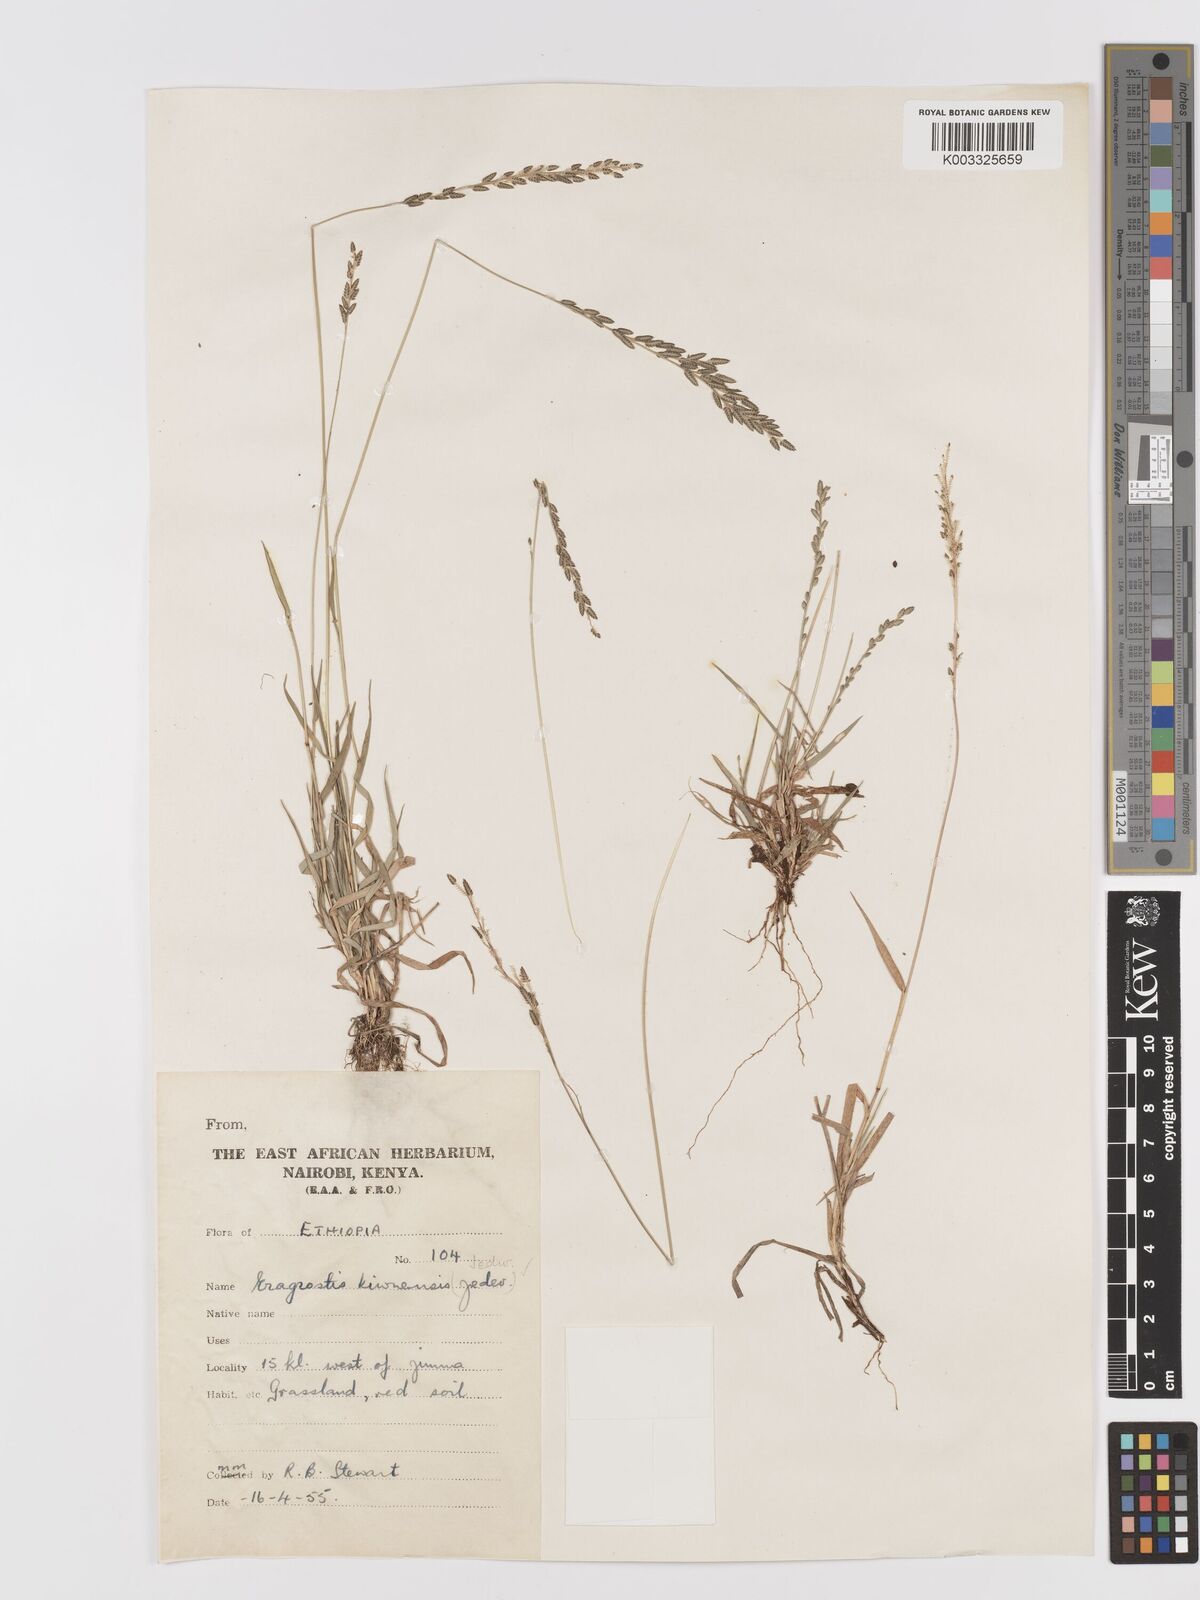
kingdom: Plantae
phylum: Tracheophyta
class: Liliopsida
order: Poales
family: Poaceae
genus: Eragrostis
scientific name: Eragrostis schweinfurthii
